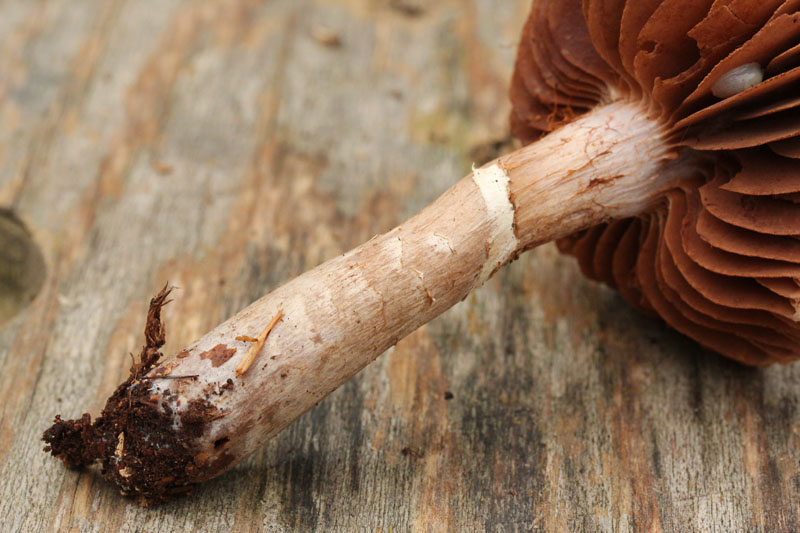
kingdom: Fungi
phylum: Basidiomycota
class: Agaricomycetes
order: Agaricales
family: Cortinariaceae
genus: Cortinarius
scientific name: Cortinarius torvus
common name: champignonagtig slørhat
